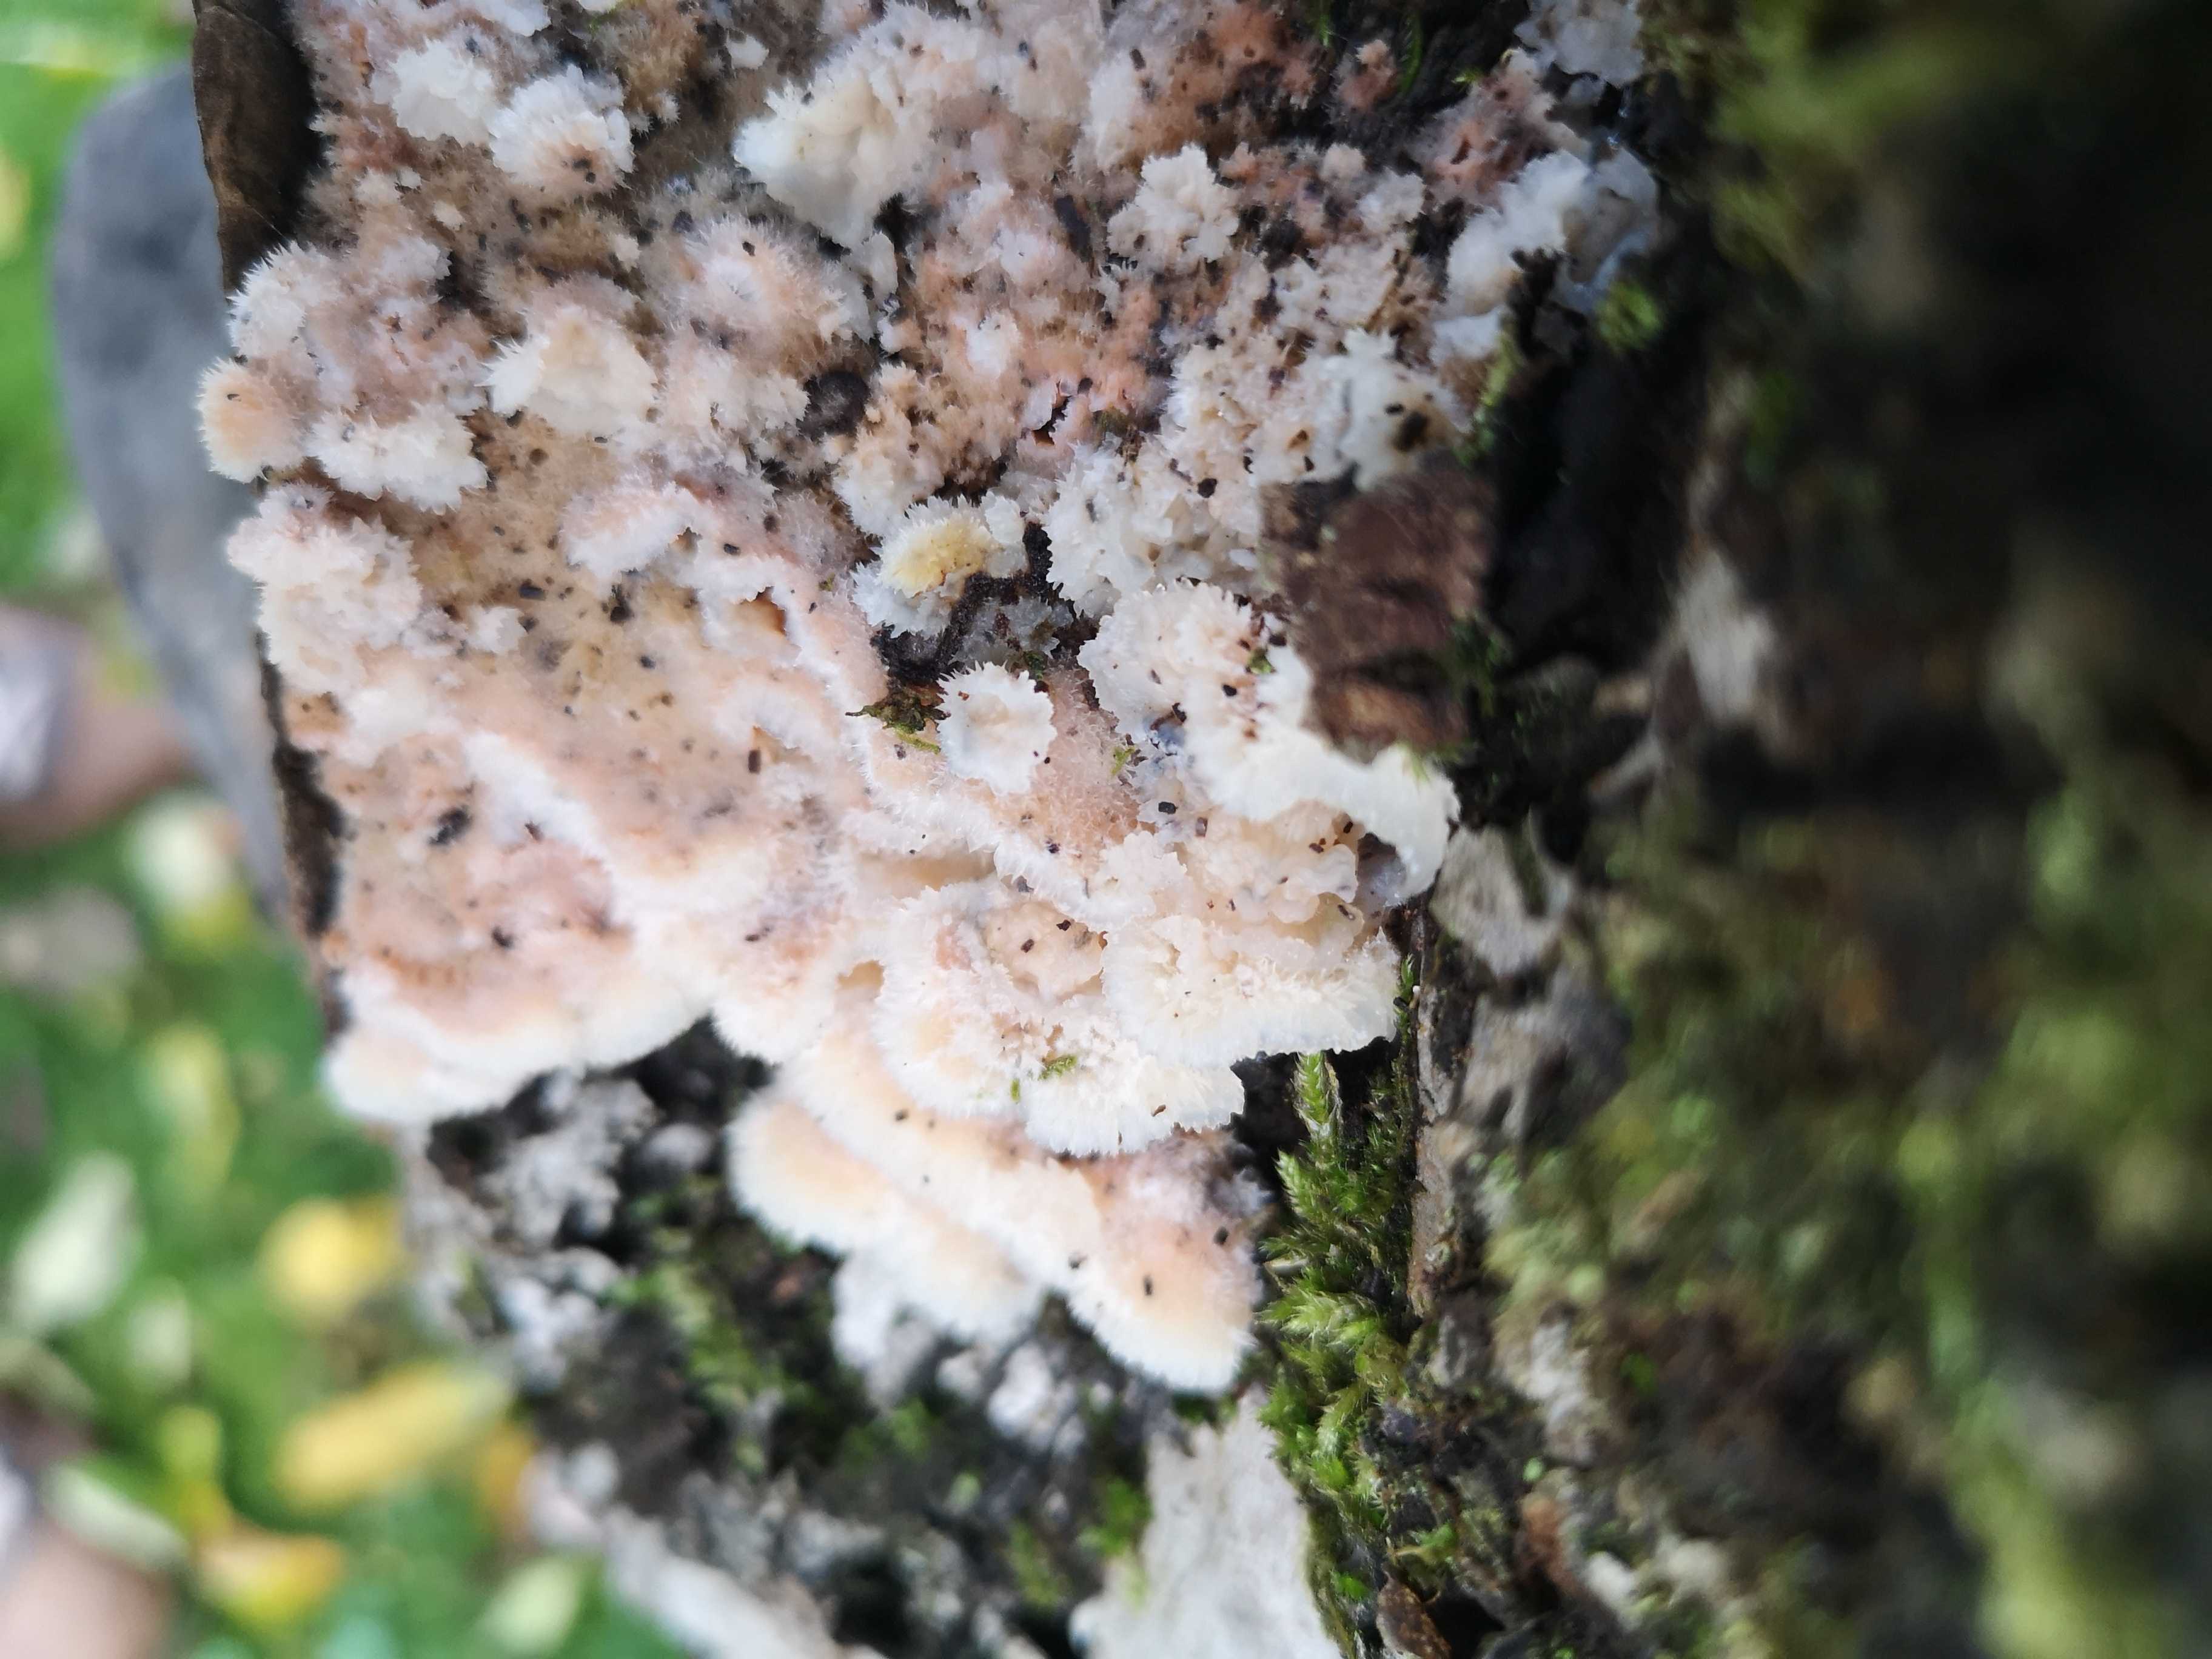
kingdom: Fungi
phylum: Basidiomycota
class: Agaricomycetes
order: Polyporales
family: Meruliaceae
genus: Phlebia
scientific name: Phlebia tremellosa
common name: bævrende åresvamp
